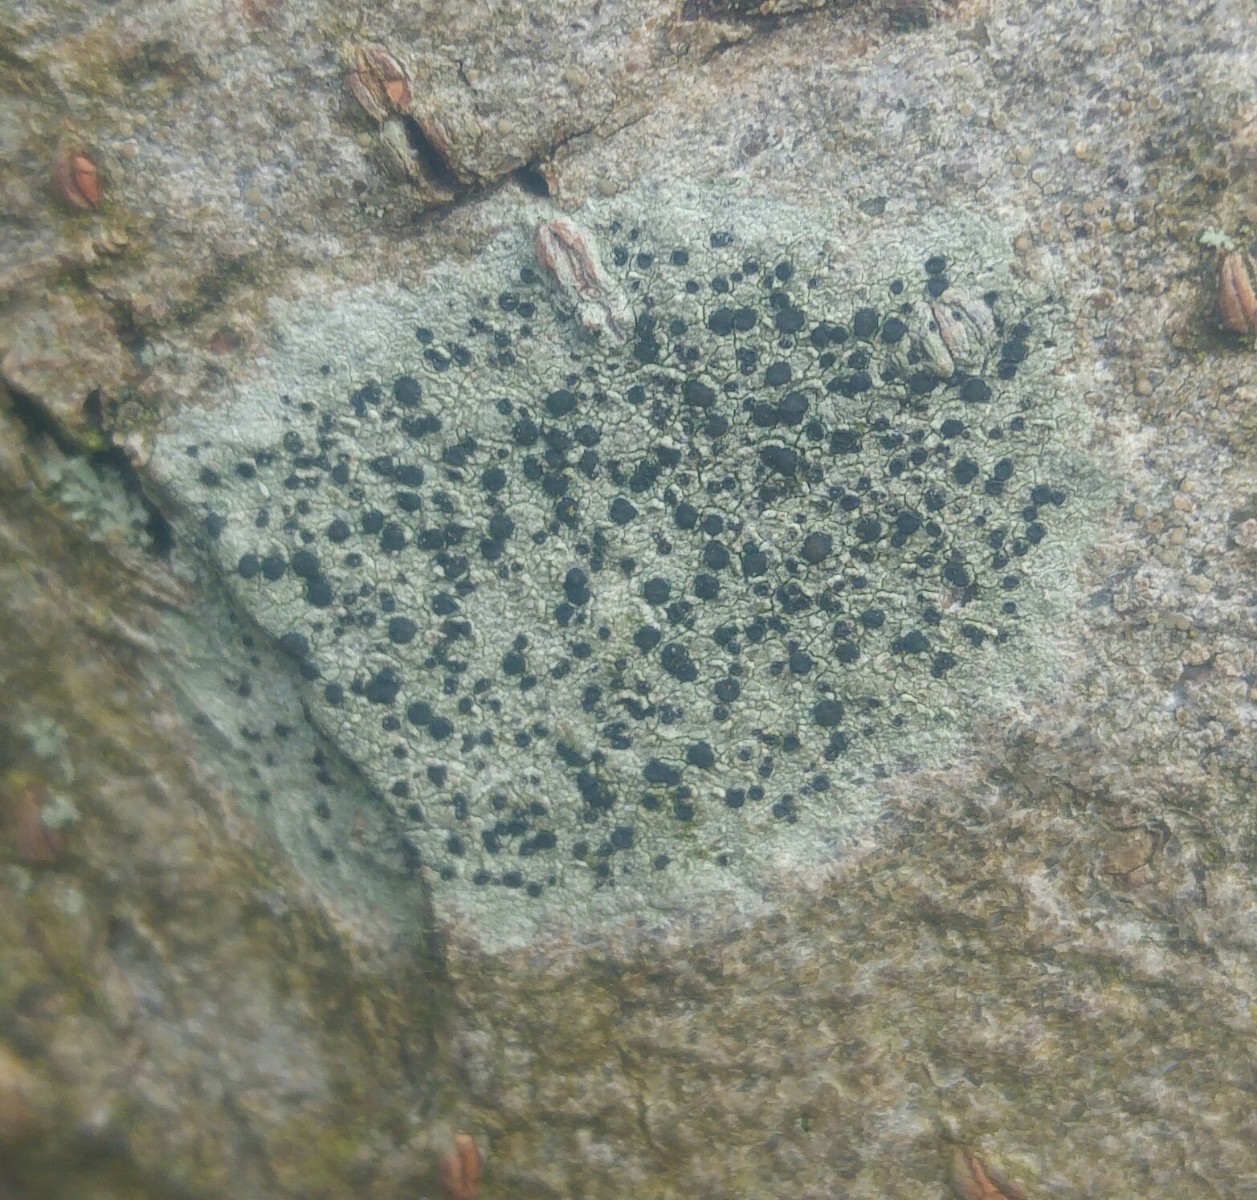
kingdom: Fungi
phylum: Ascomycota
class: Lecanoromycetes
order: Lecanorales
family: Lecanoraceae
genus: Lecidella
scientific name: Lecidella elaeochroma
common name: grågrøn skivelav
